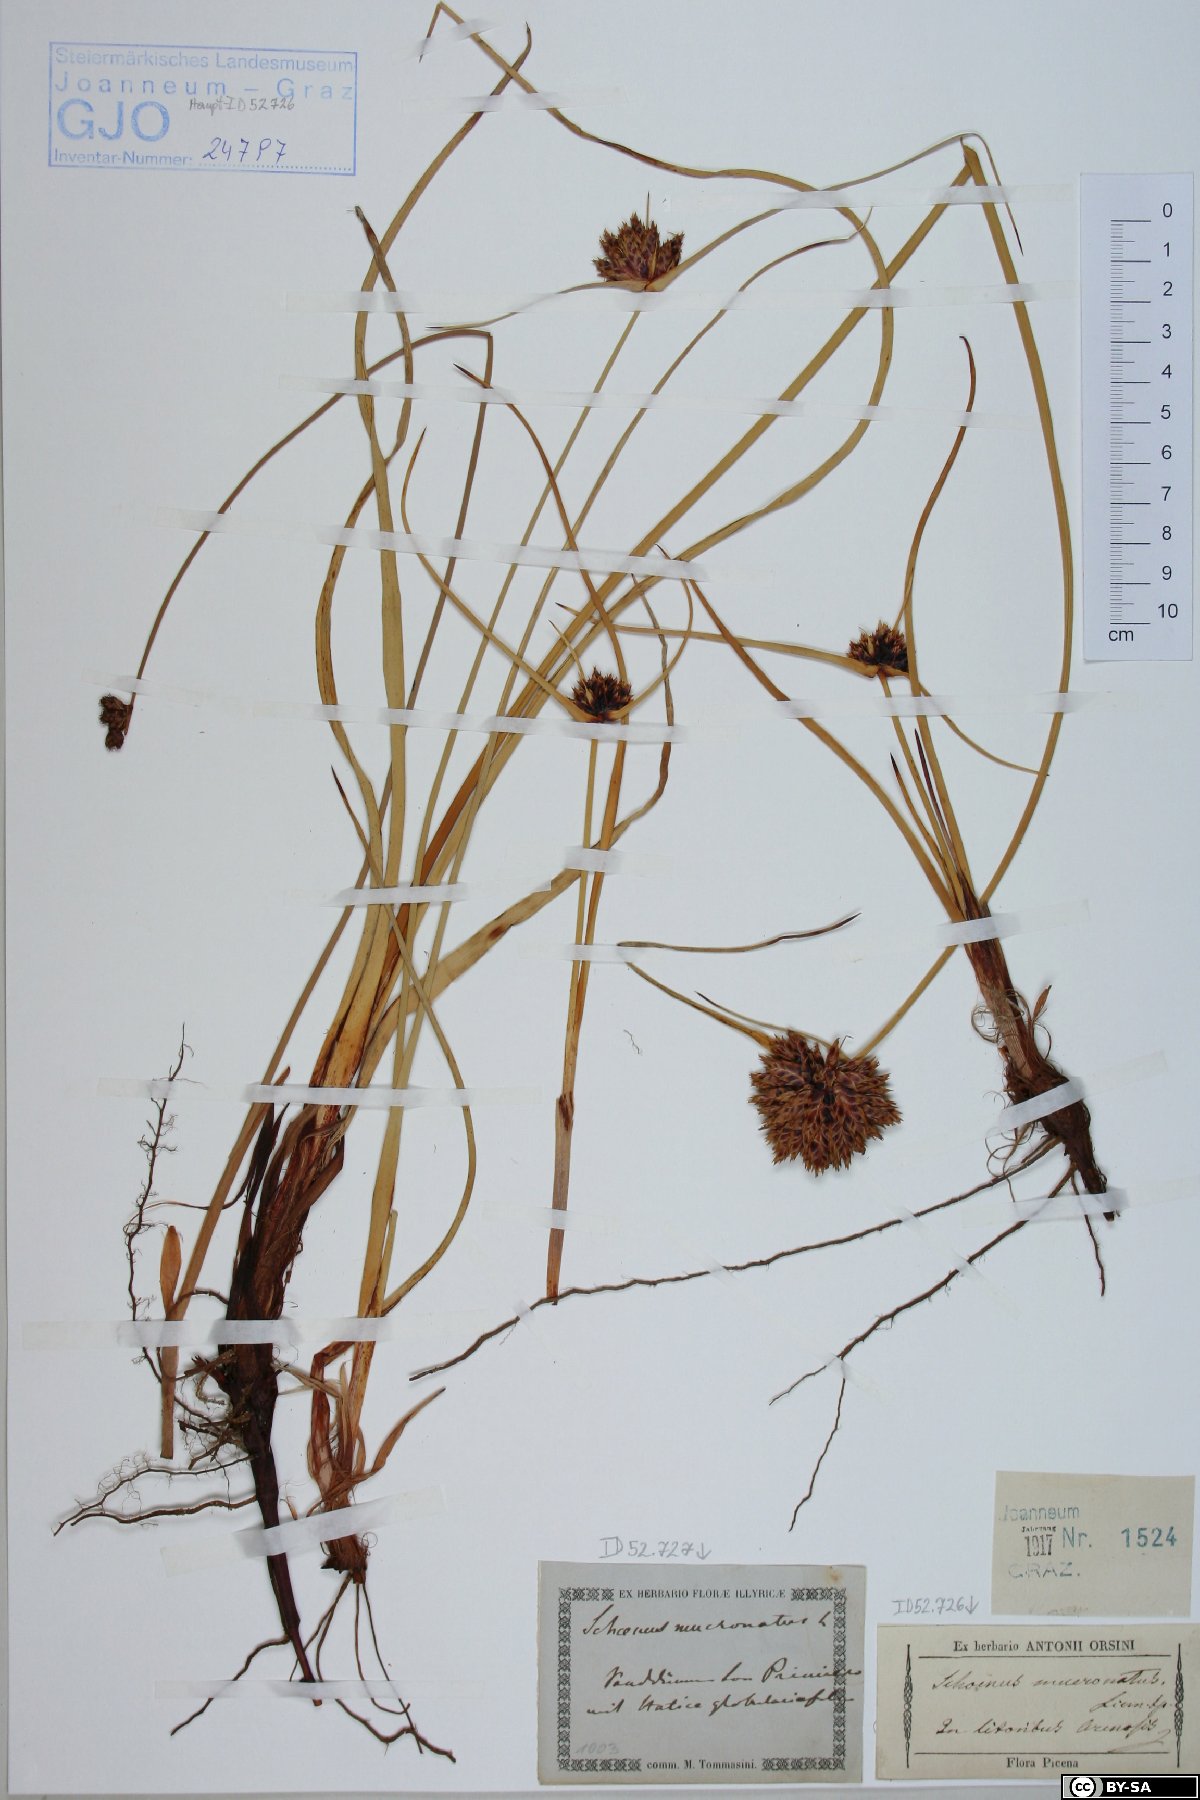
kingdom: Plantae
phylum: Tracheophyta
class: Liliopsida
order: Poales
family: Cyperaceae
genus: Cyperus
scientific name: Cyperus capitatus
